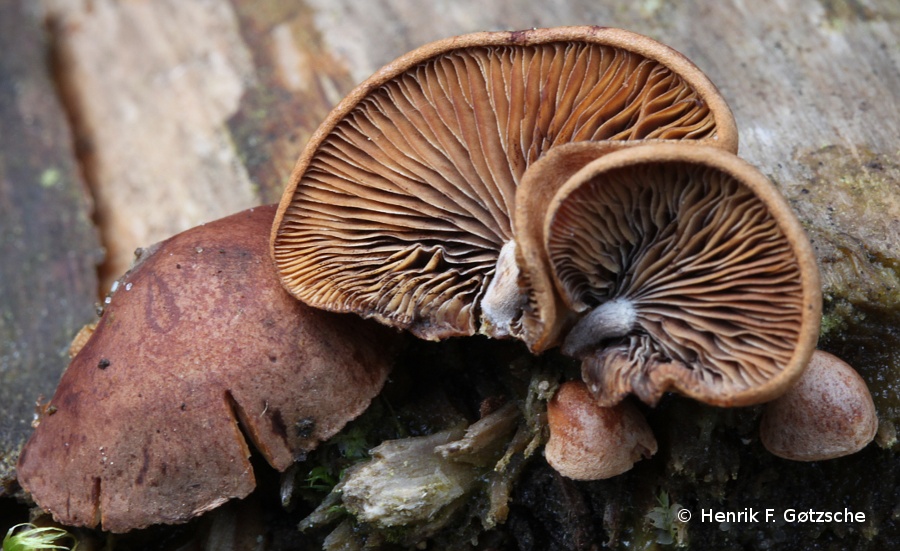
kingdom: Fungi
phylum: Basidiomycota
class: Agaricomycetes
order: Agaricales
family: Strophariaceae
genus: Deconica
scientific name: Deconica horizontalis
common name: ved-stråhat
